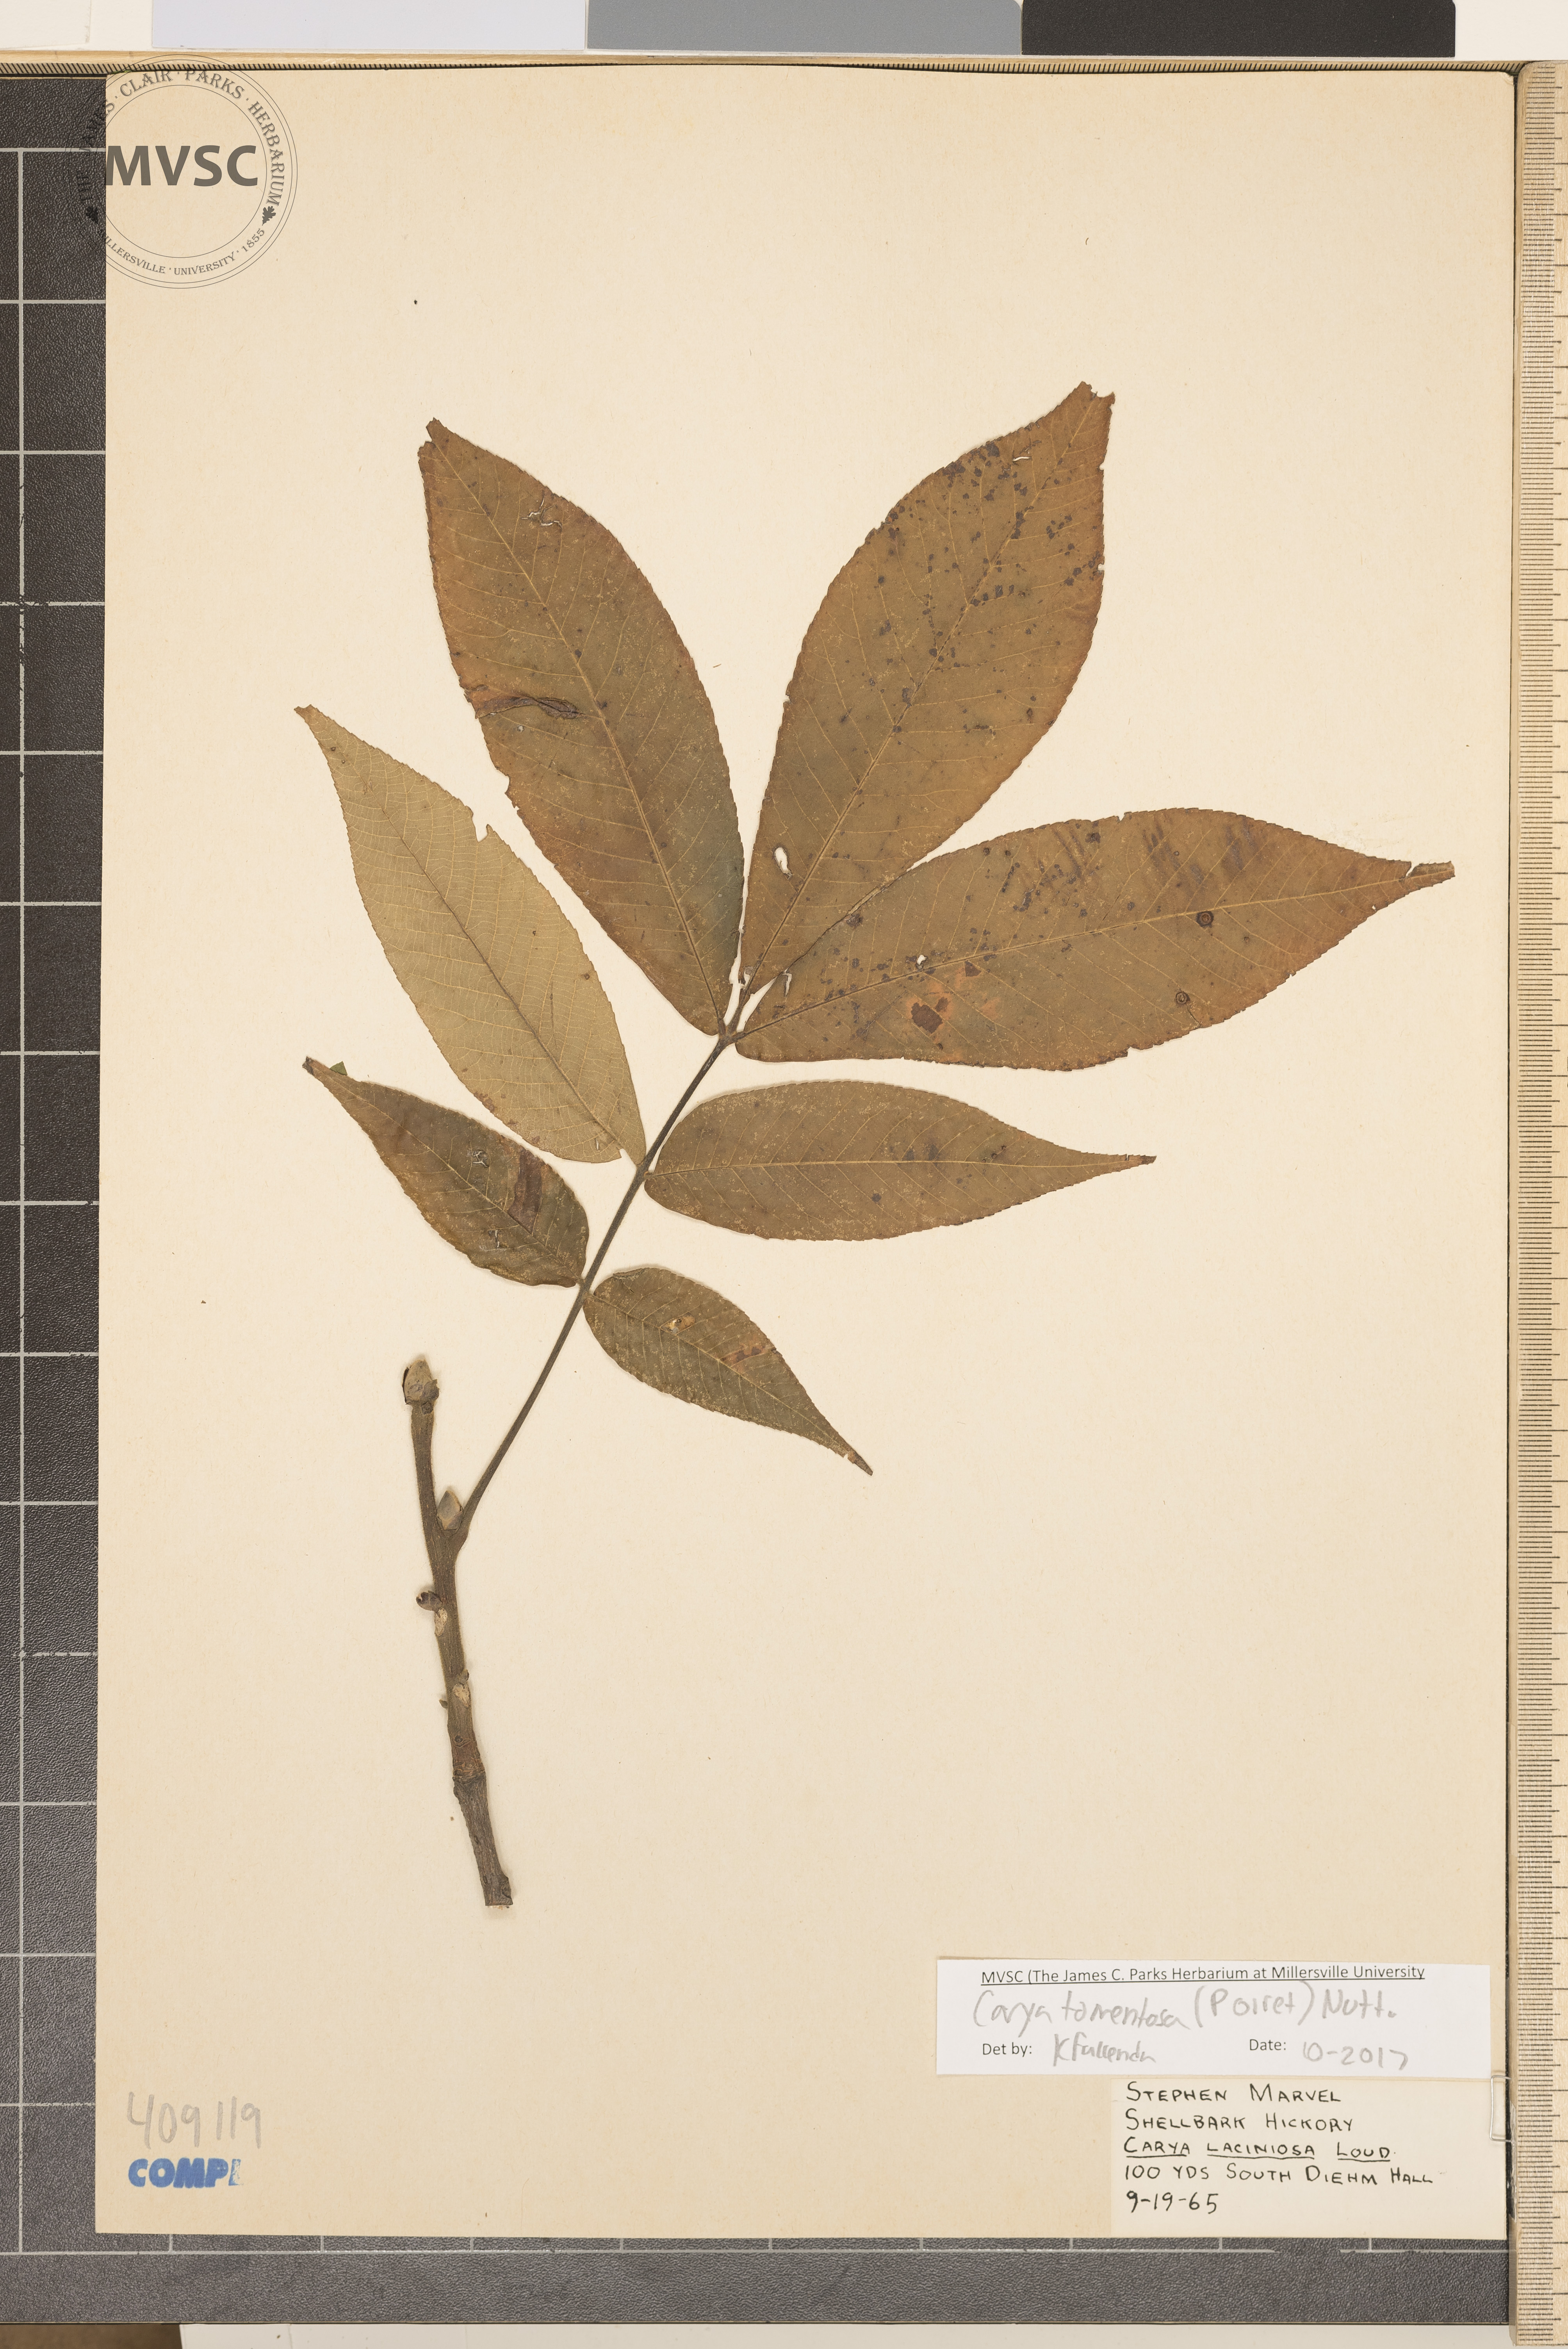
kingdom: Plantae
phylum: Tracheophyta
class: Magnoliopsida
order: Fagales
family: Juglandaceae
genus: Carya
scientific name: Carya alba
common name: Mockernut hickory
